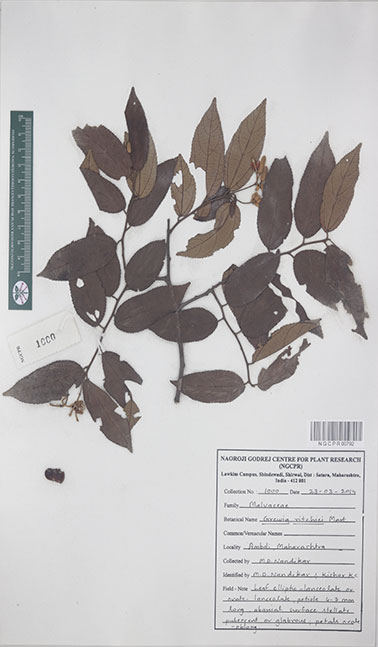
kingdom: Plantae
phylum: Tracheophyta
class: Magnoliopsida
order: Malvales
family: Malvaceae
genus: Grewia
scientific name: Grewia ritchiei
